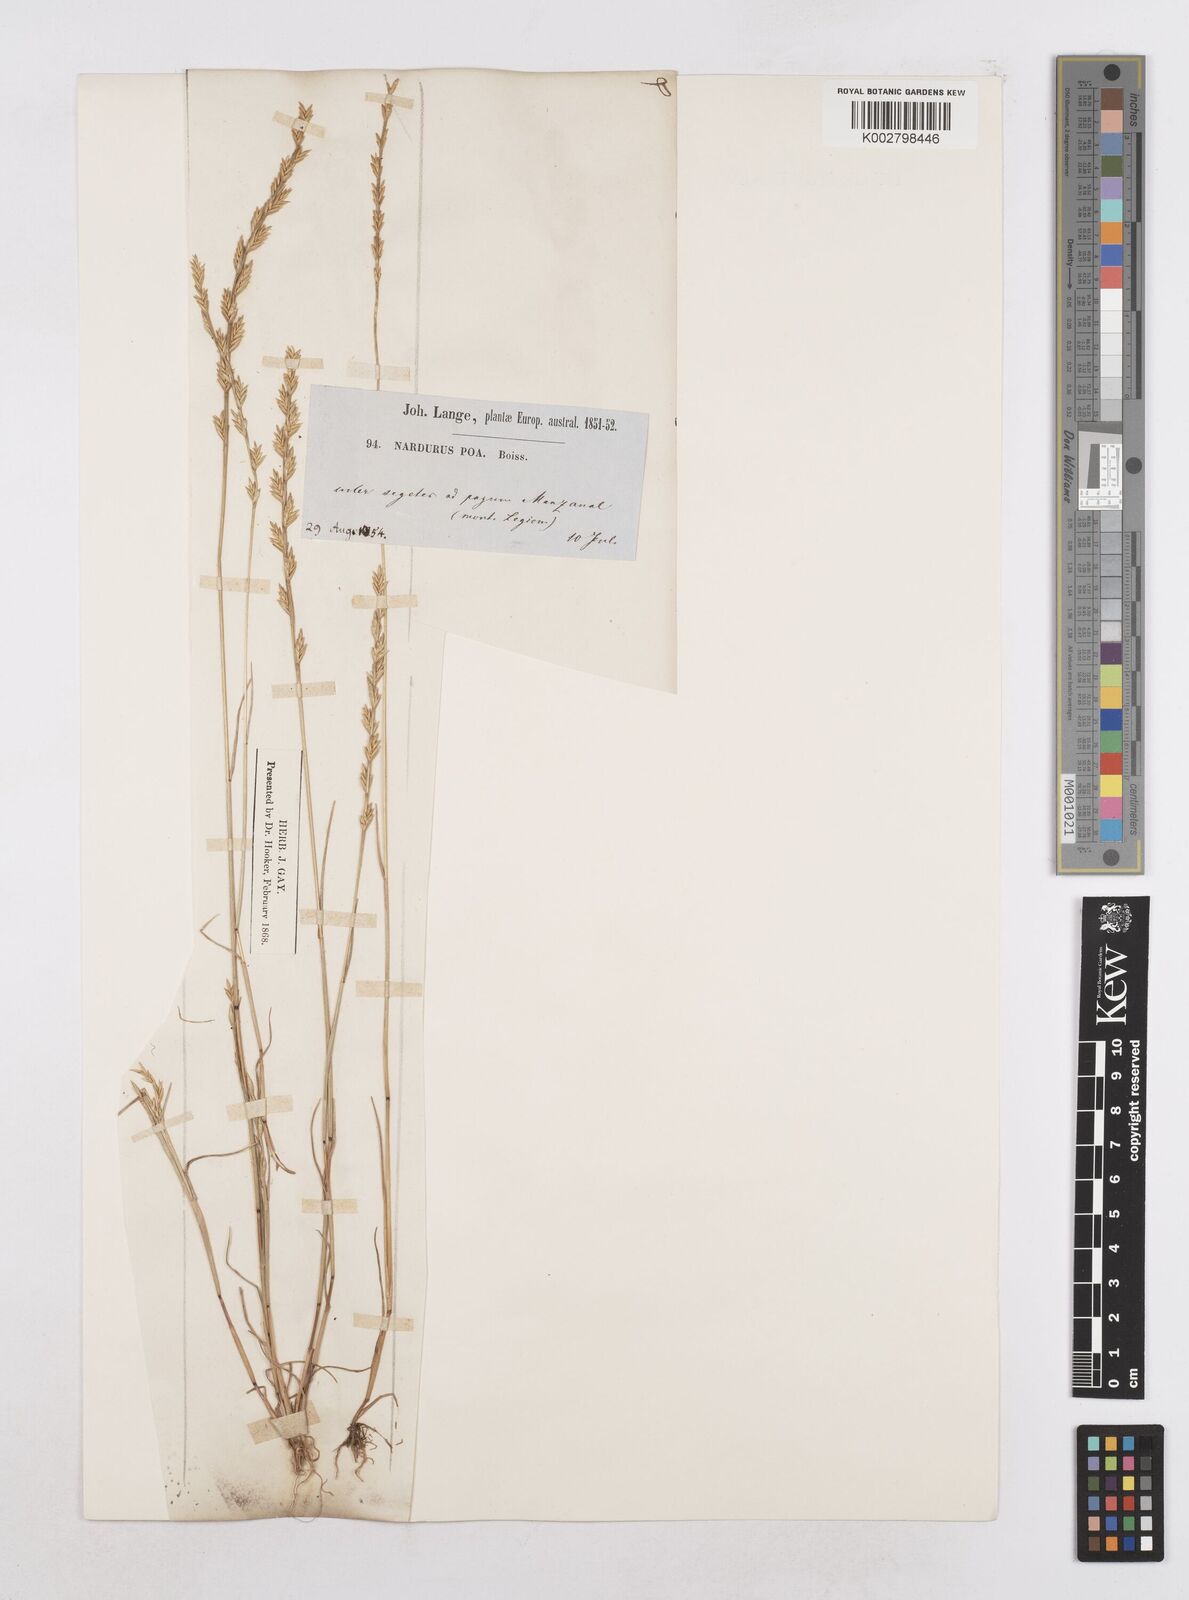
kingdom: Plantae
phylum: Tracheophyta
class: Liliopsida
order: Poales
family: Poaceae
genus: Festuca
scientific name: Festuca lachenalii
